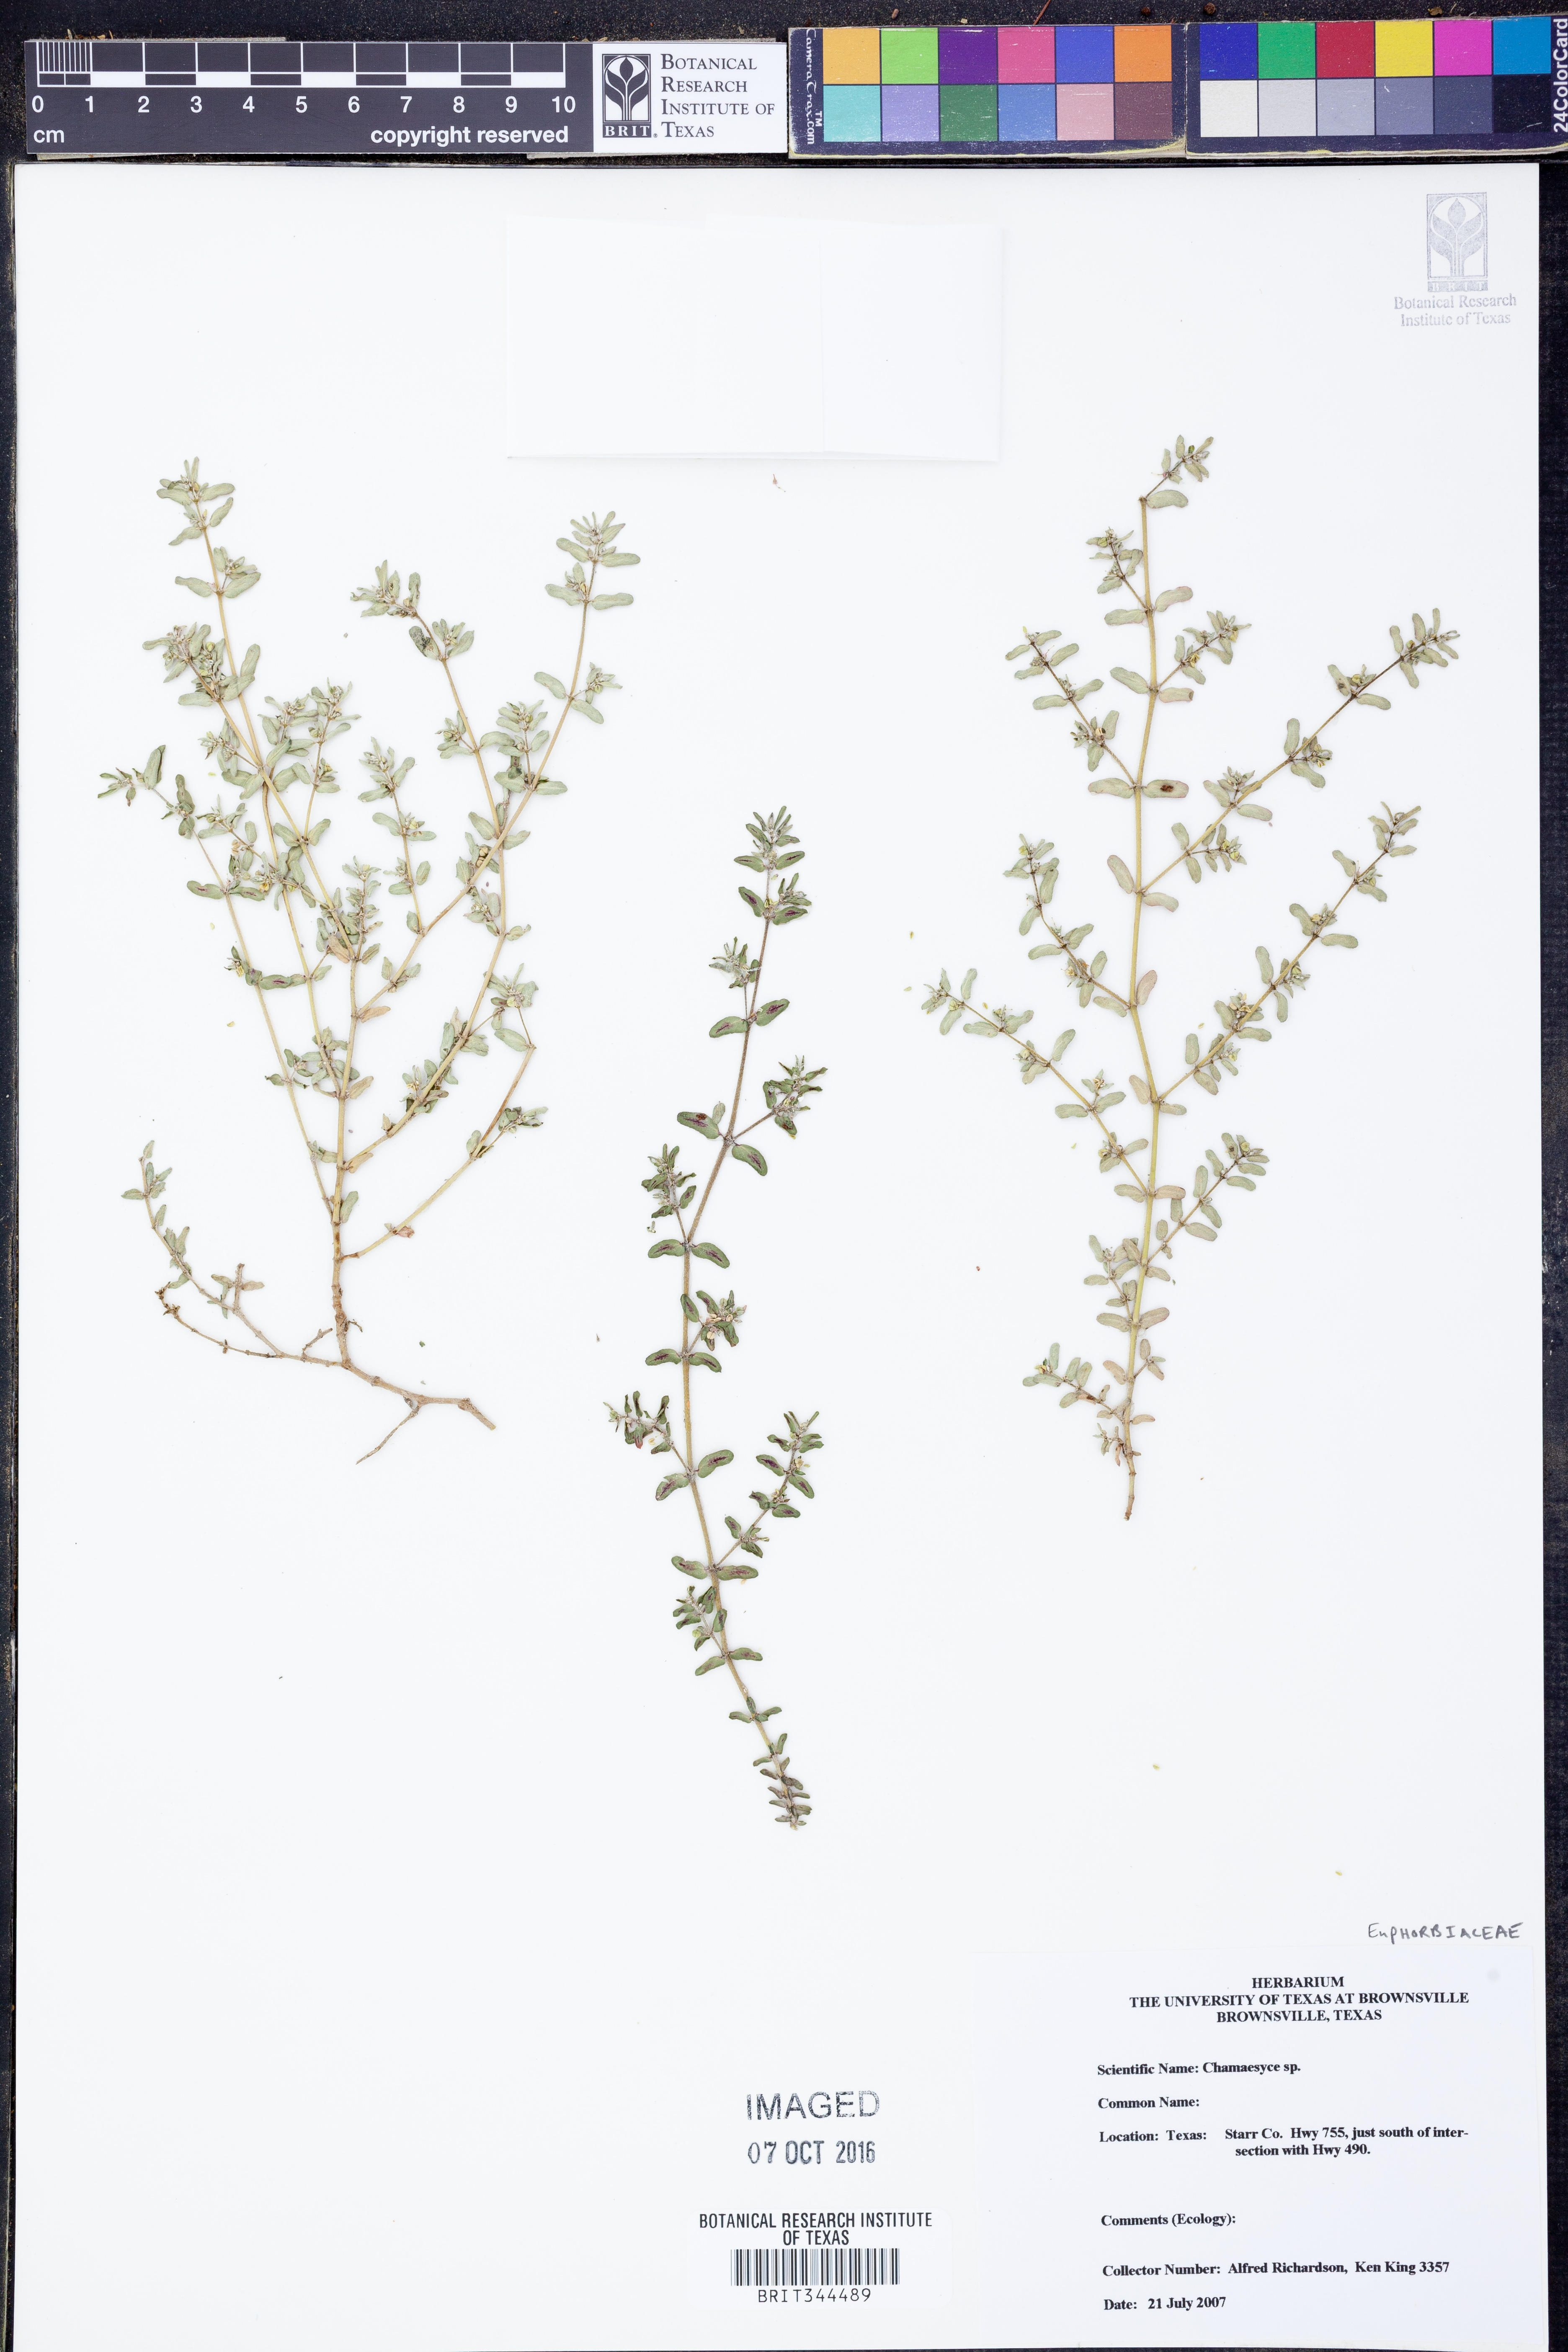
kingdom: Plantae
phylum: Tracheophyta
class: Magnoliopsida
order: Malpighiales
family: Euphorbiaceae
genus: Chamaesyce
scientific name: Chamaesyce
